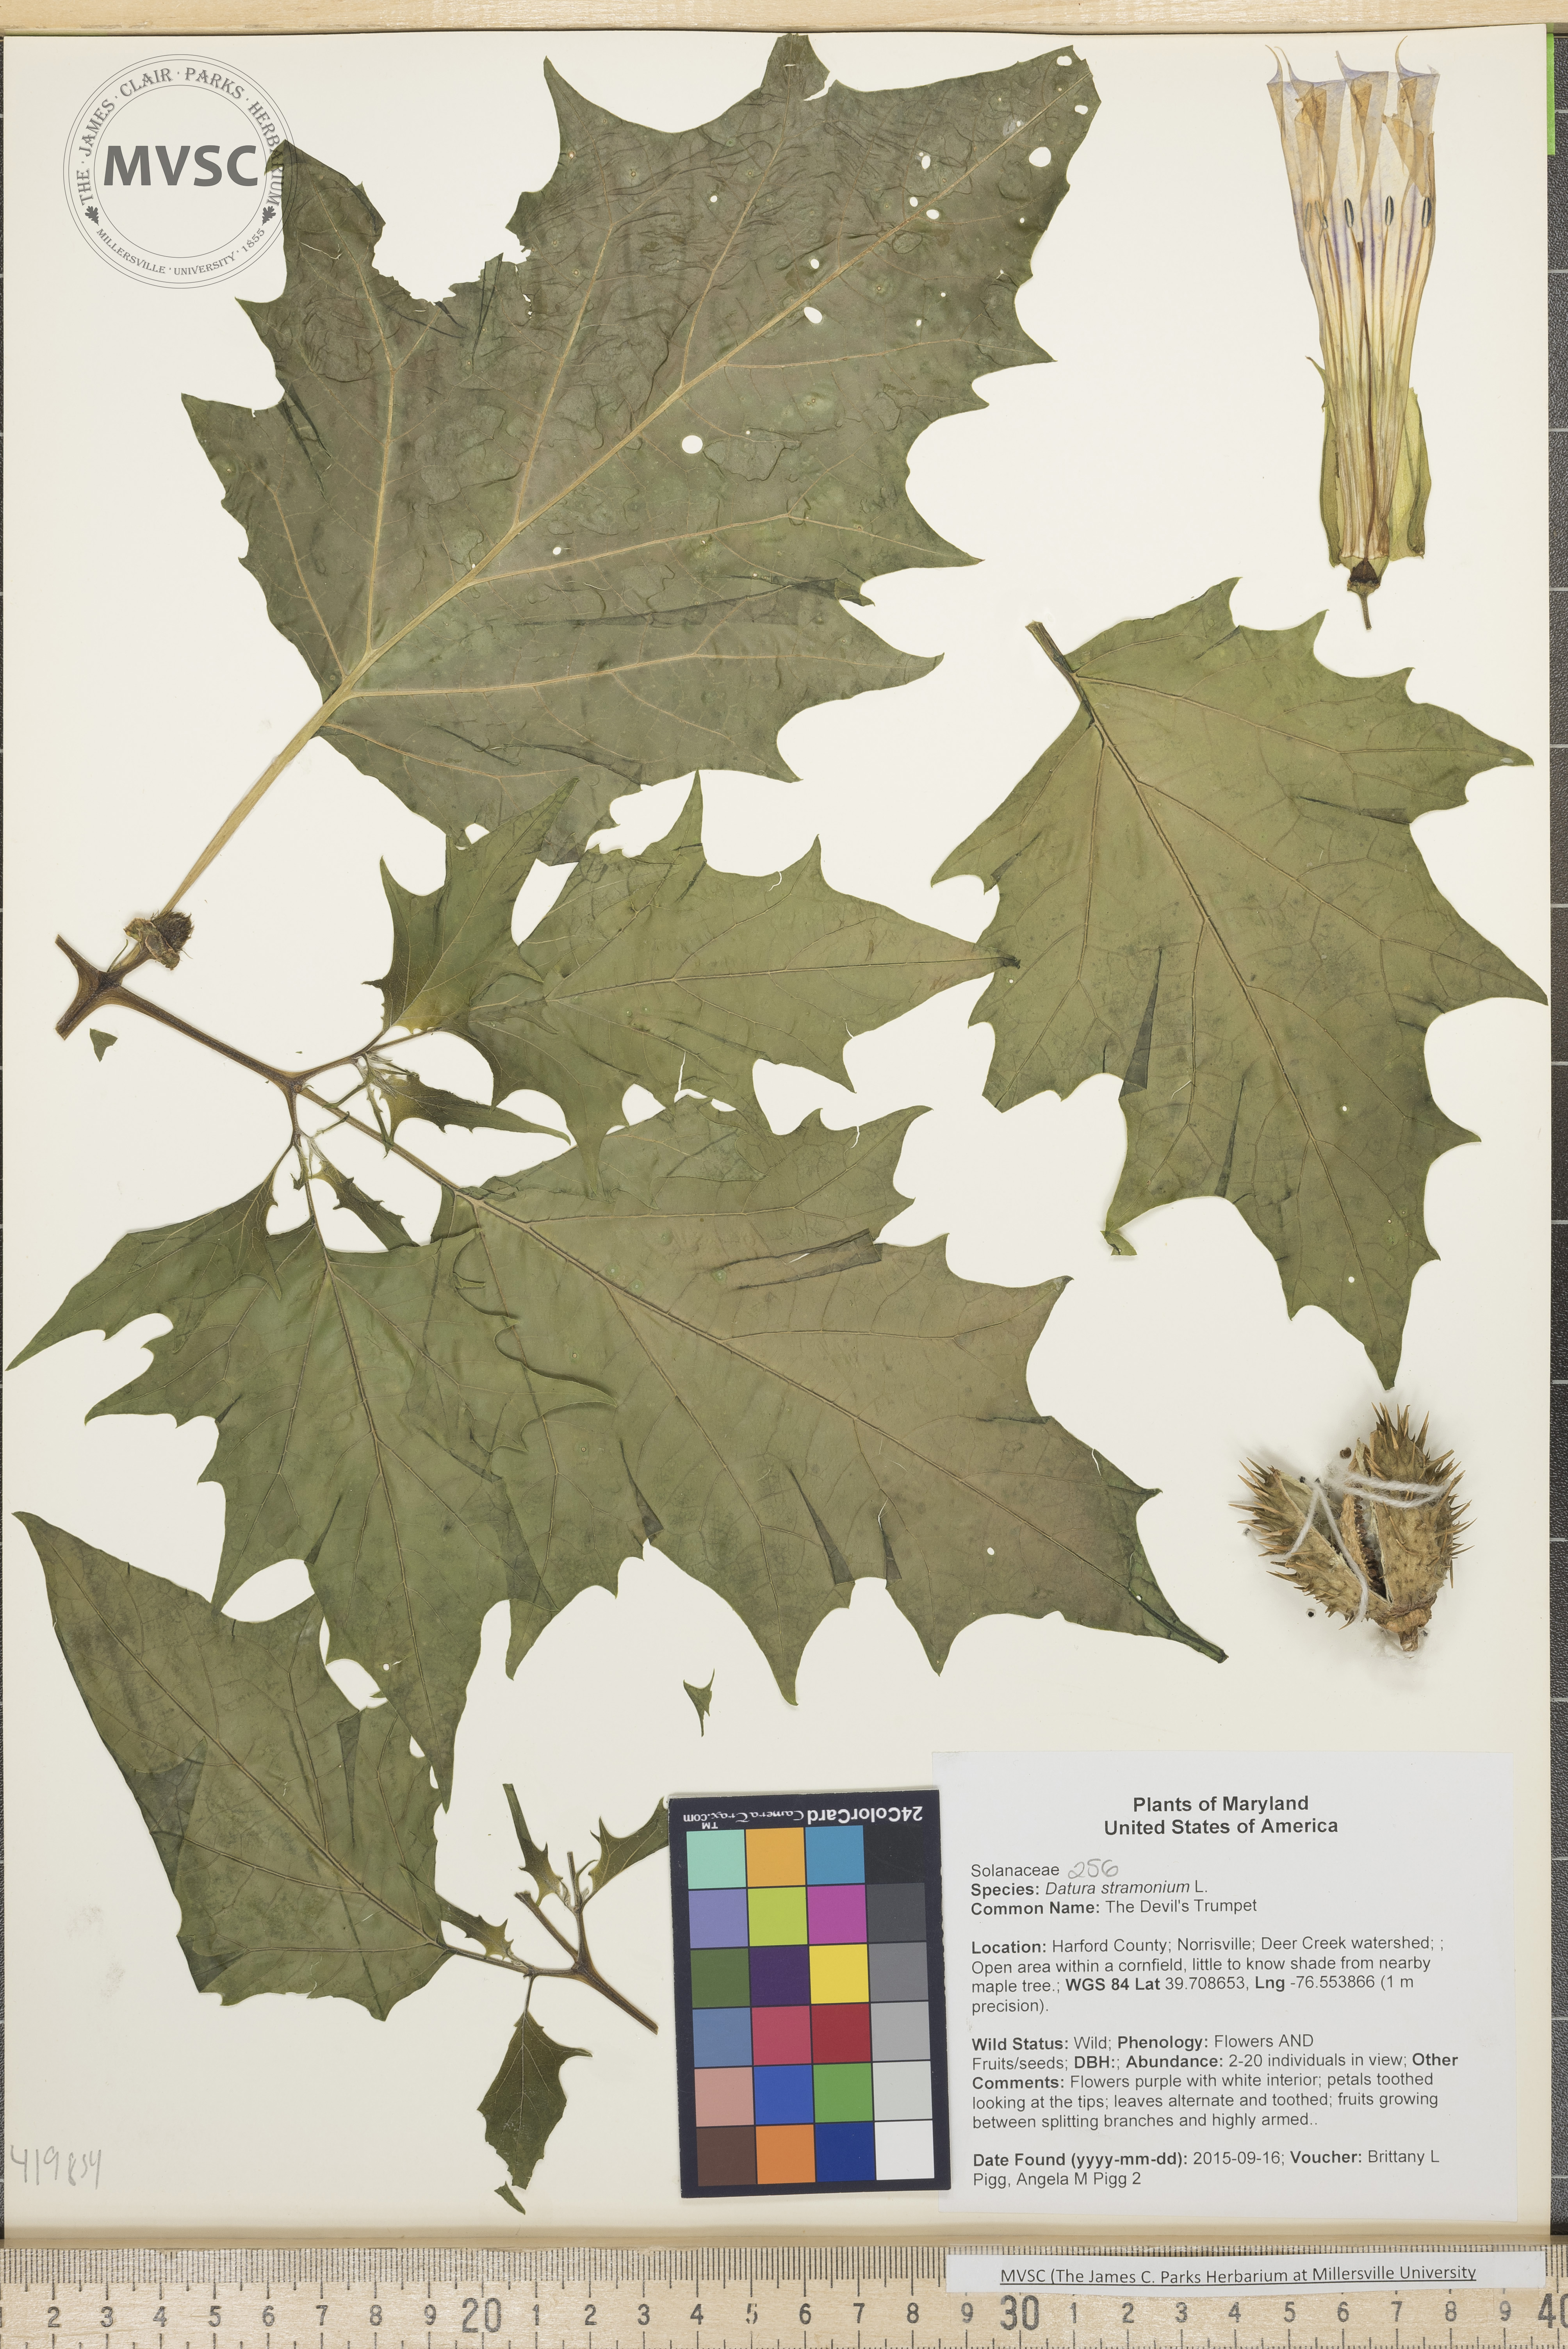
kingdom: Plantae
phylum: Tracheophyta
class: Magnoliopsida
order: Solanales
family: Solanaceae
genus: Datura
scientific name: Datura stramonium
